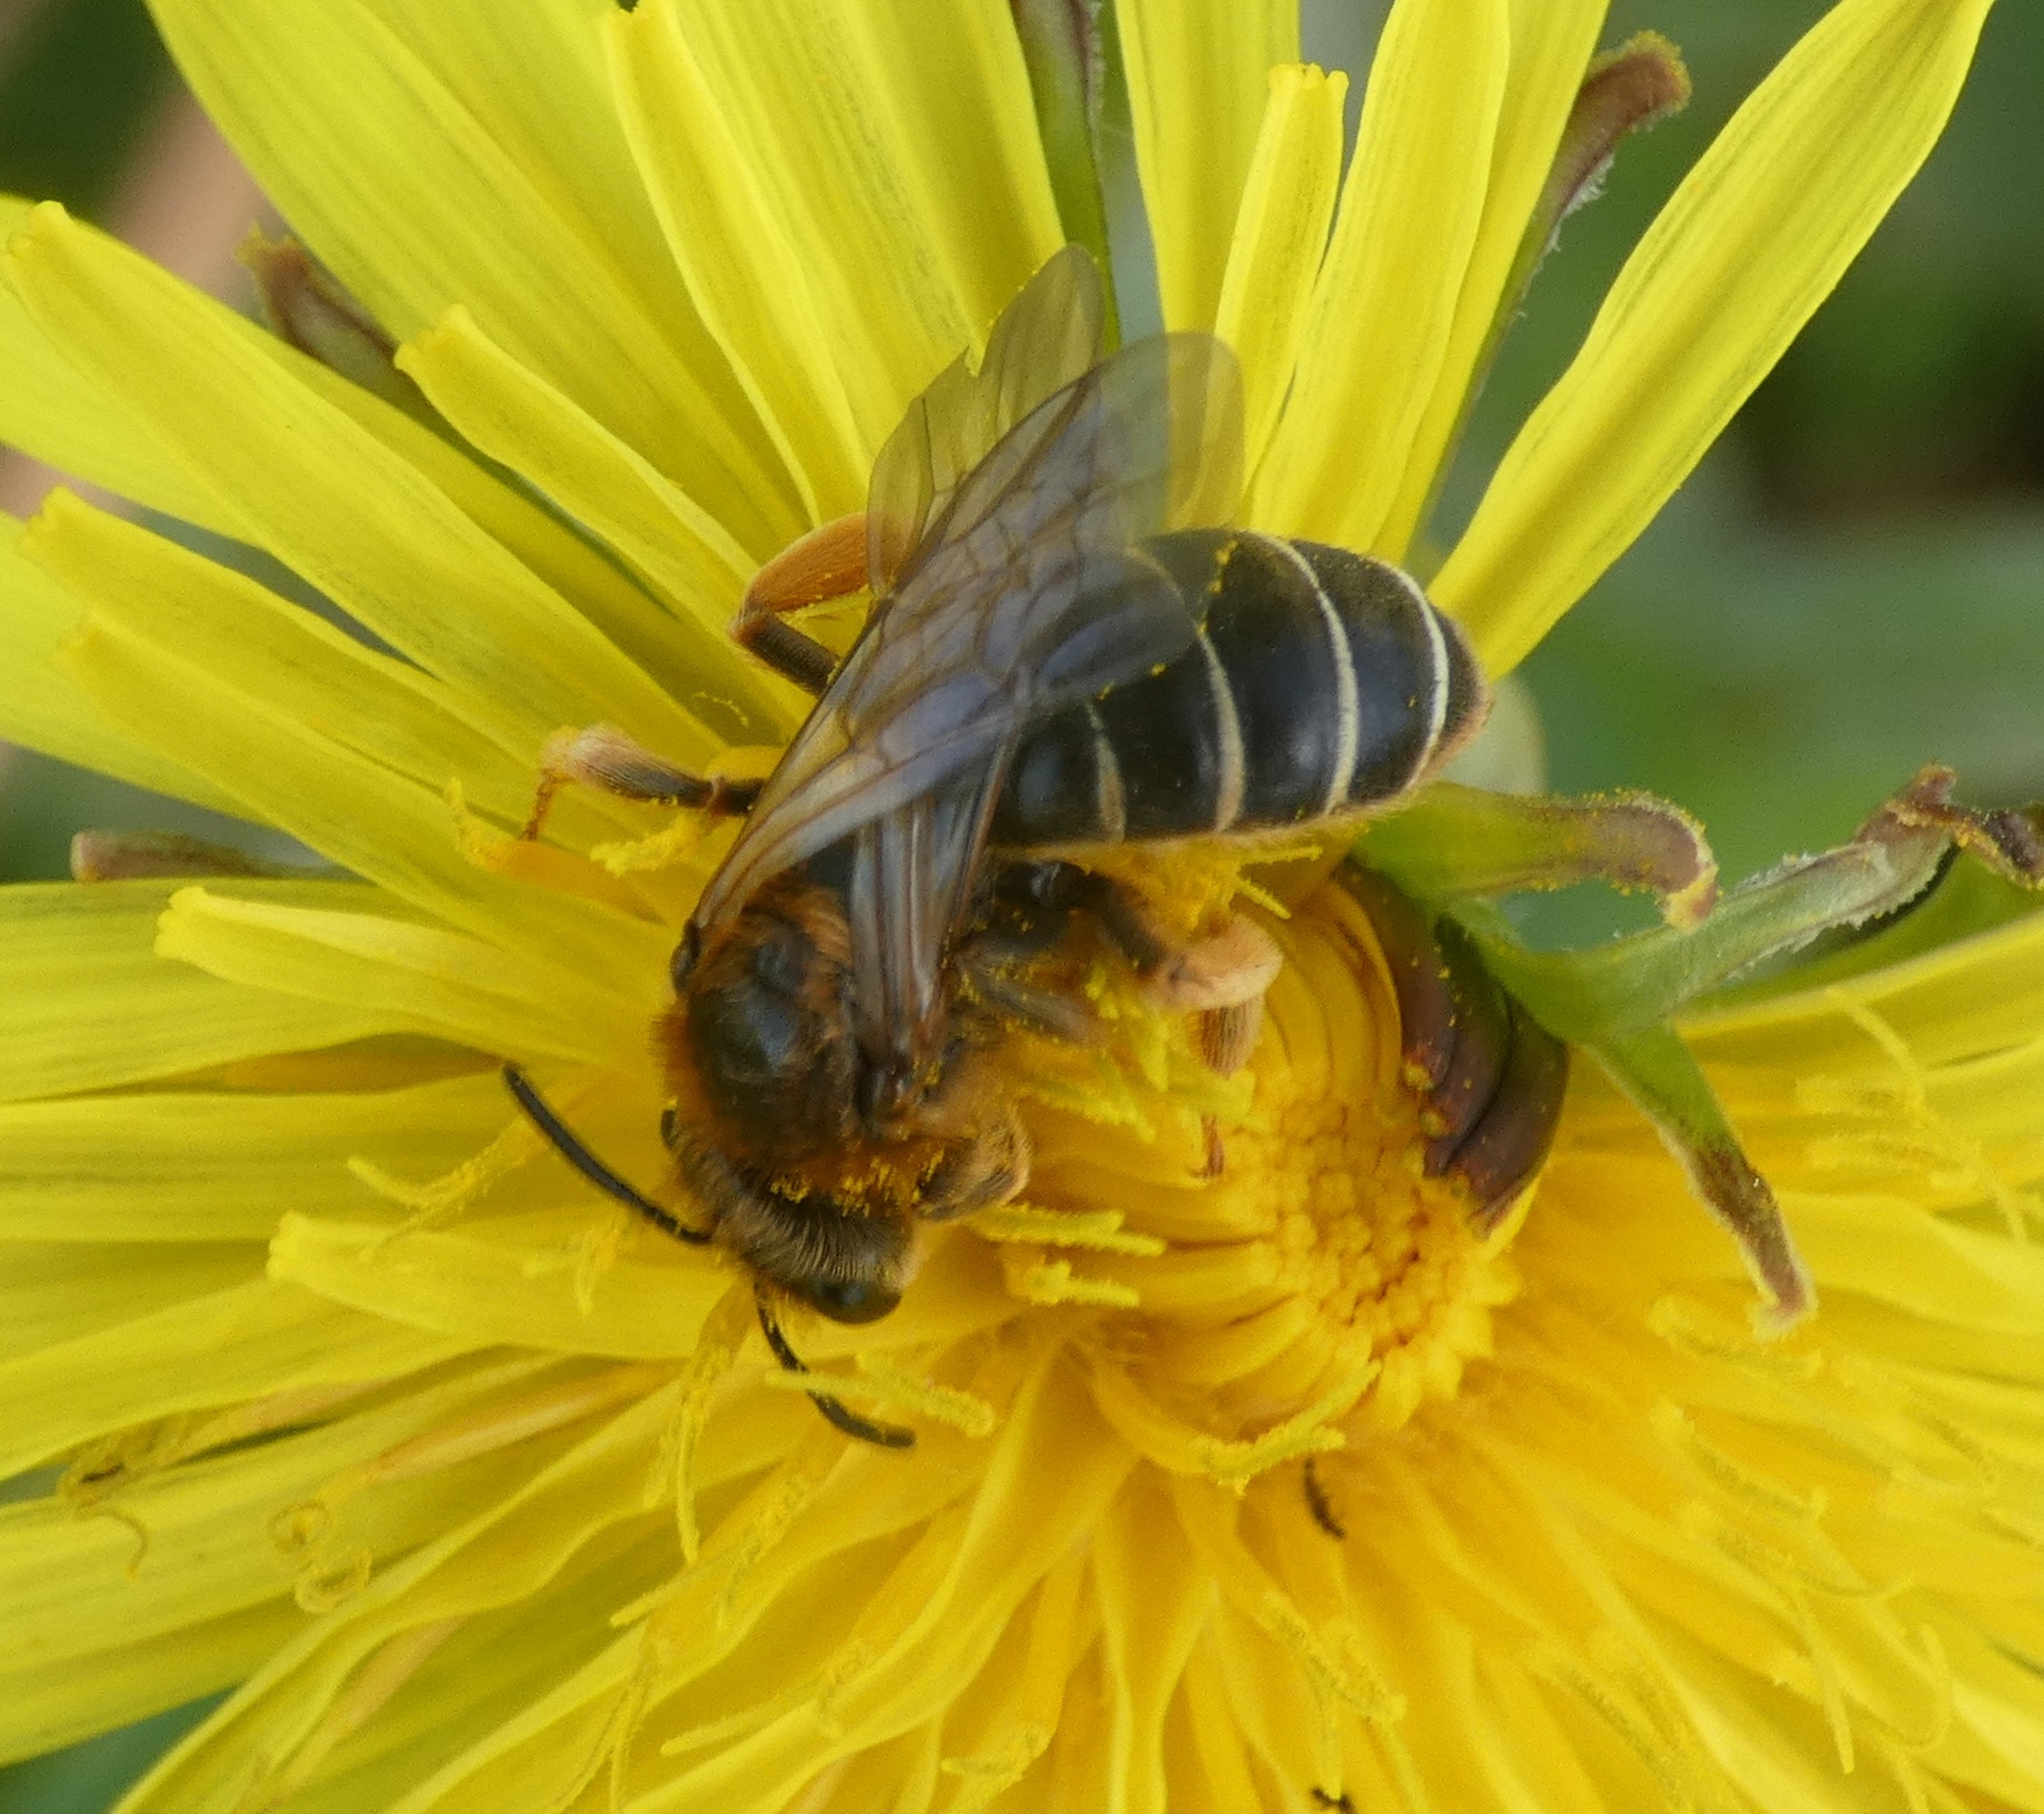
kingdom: Animalia
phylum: Arthropoda
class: Insecta
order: Hymenoptera
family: Halictidae
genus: Halictus
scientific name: Halictus rubicundus
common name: Skovvejbi
